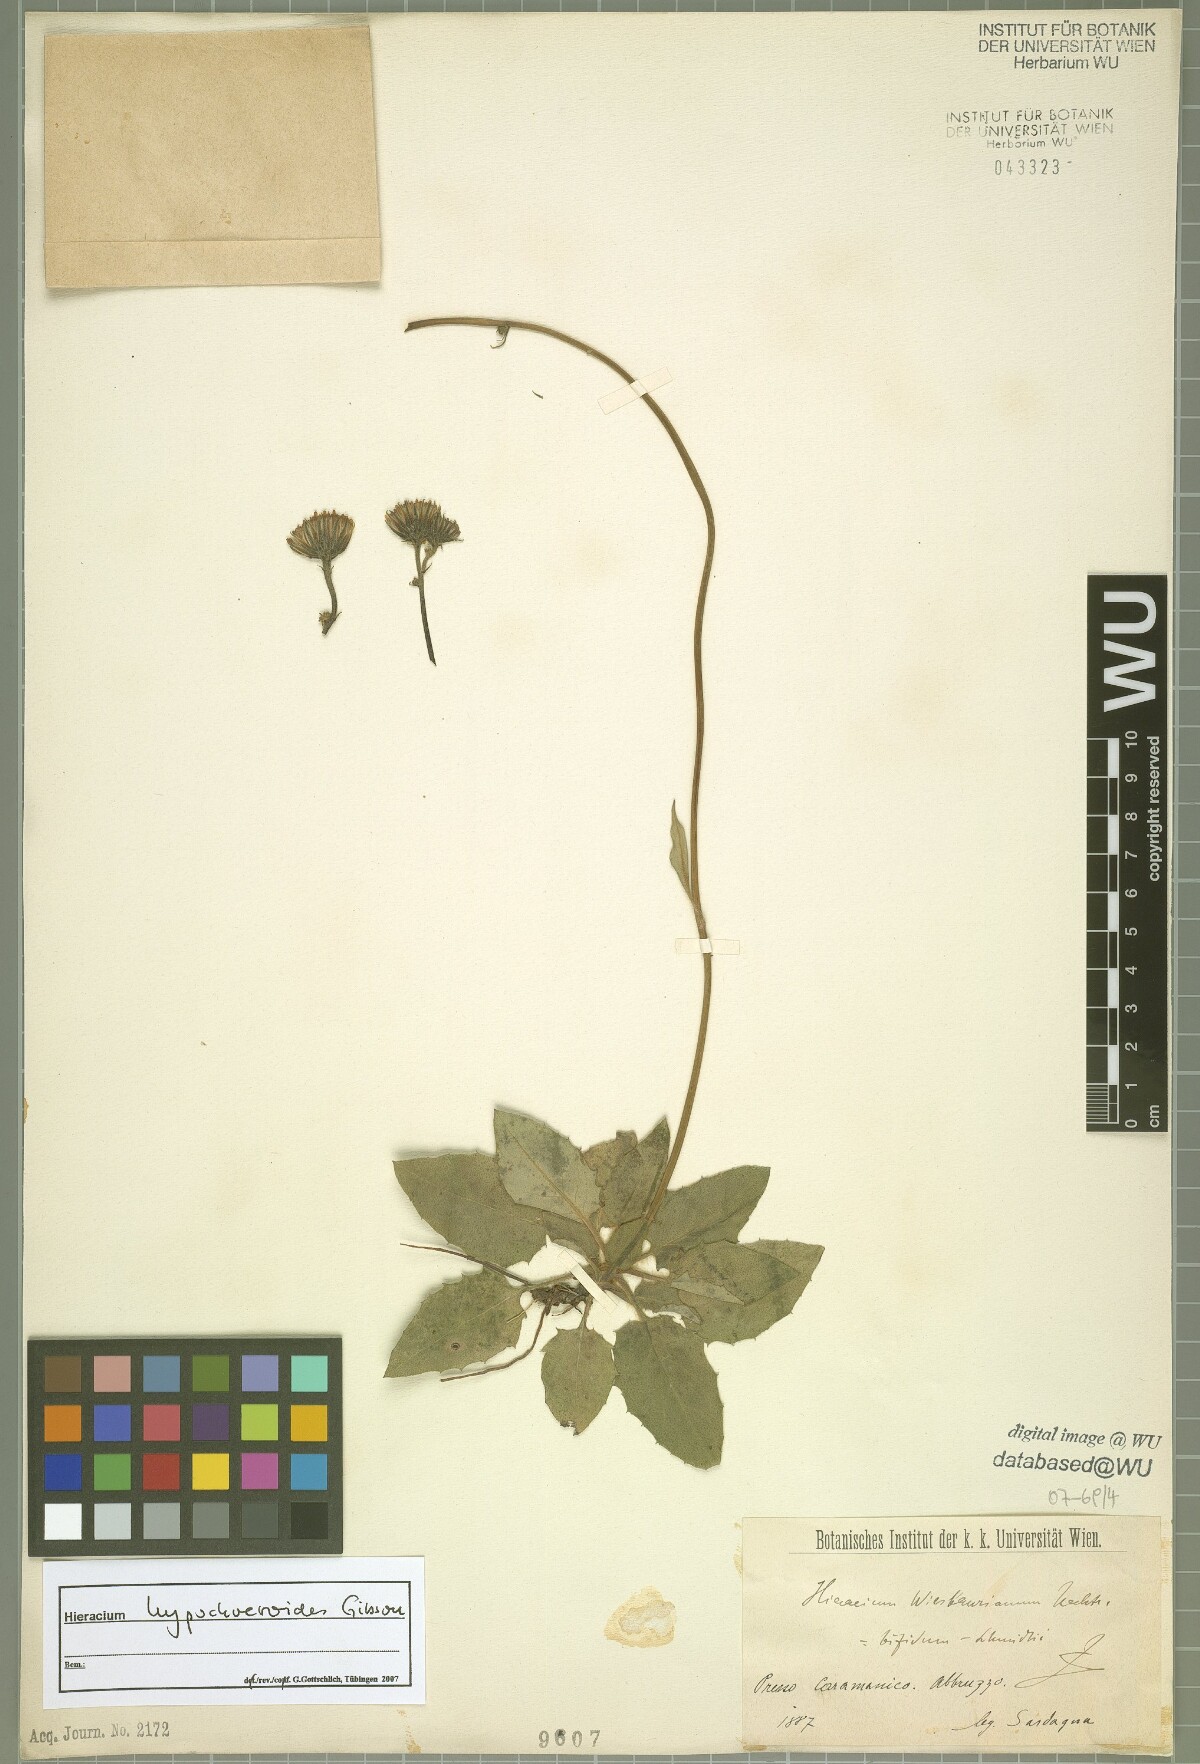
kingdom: Plantae
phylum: Tracheophyta
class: Magnoliopsida
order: Asterales
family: Asteraceae
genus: Hieracium
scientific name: Hieracium hypochoeroides
